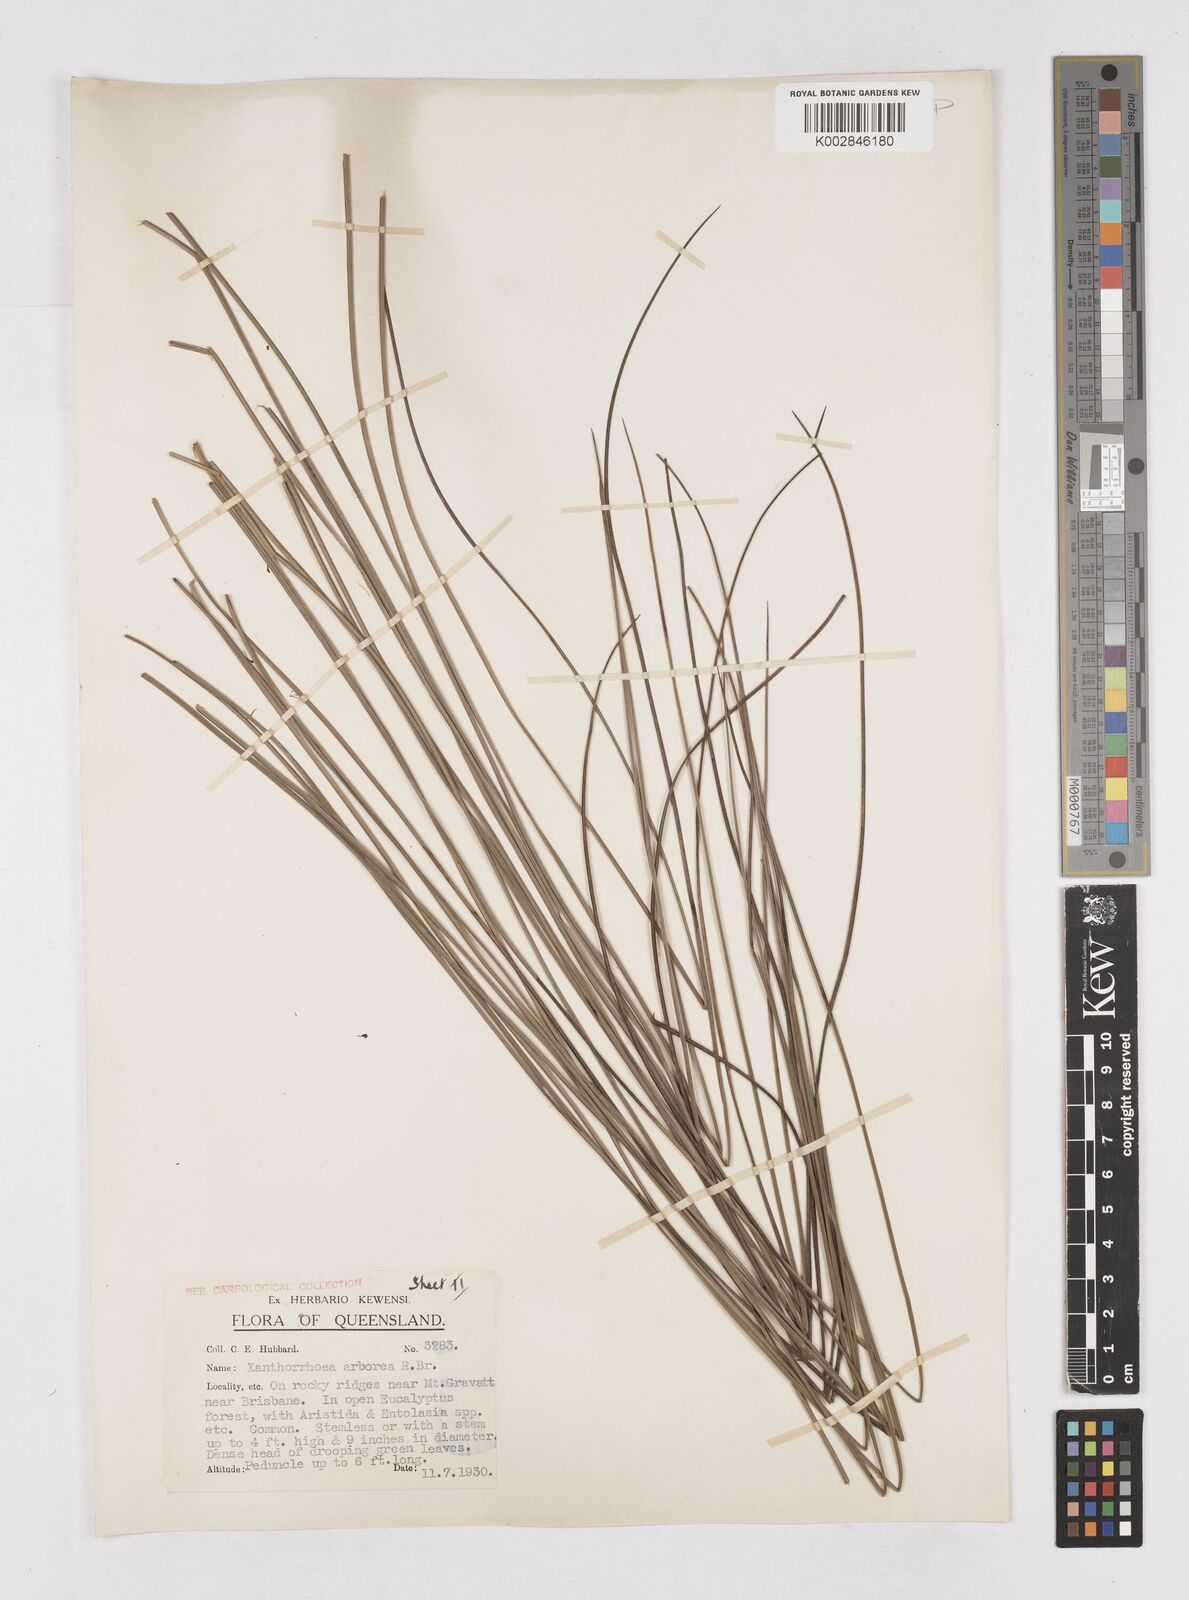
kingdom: Plantae
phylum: Tracheophyta
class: Liliopsida
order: Asparagales
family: Asphodelaceae
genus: Xanthorrhoea
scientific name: Xanthorrhoea arborea
